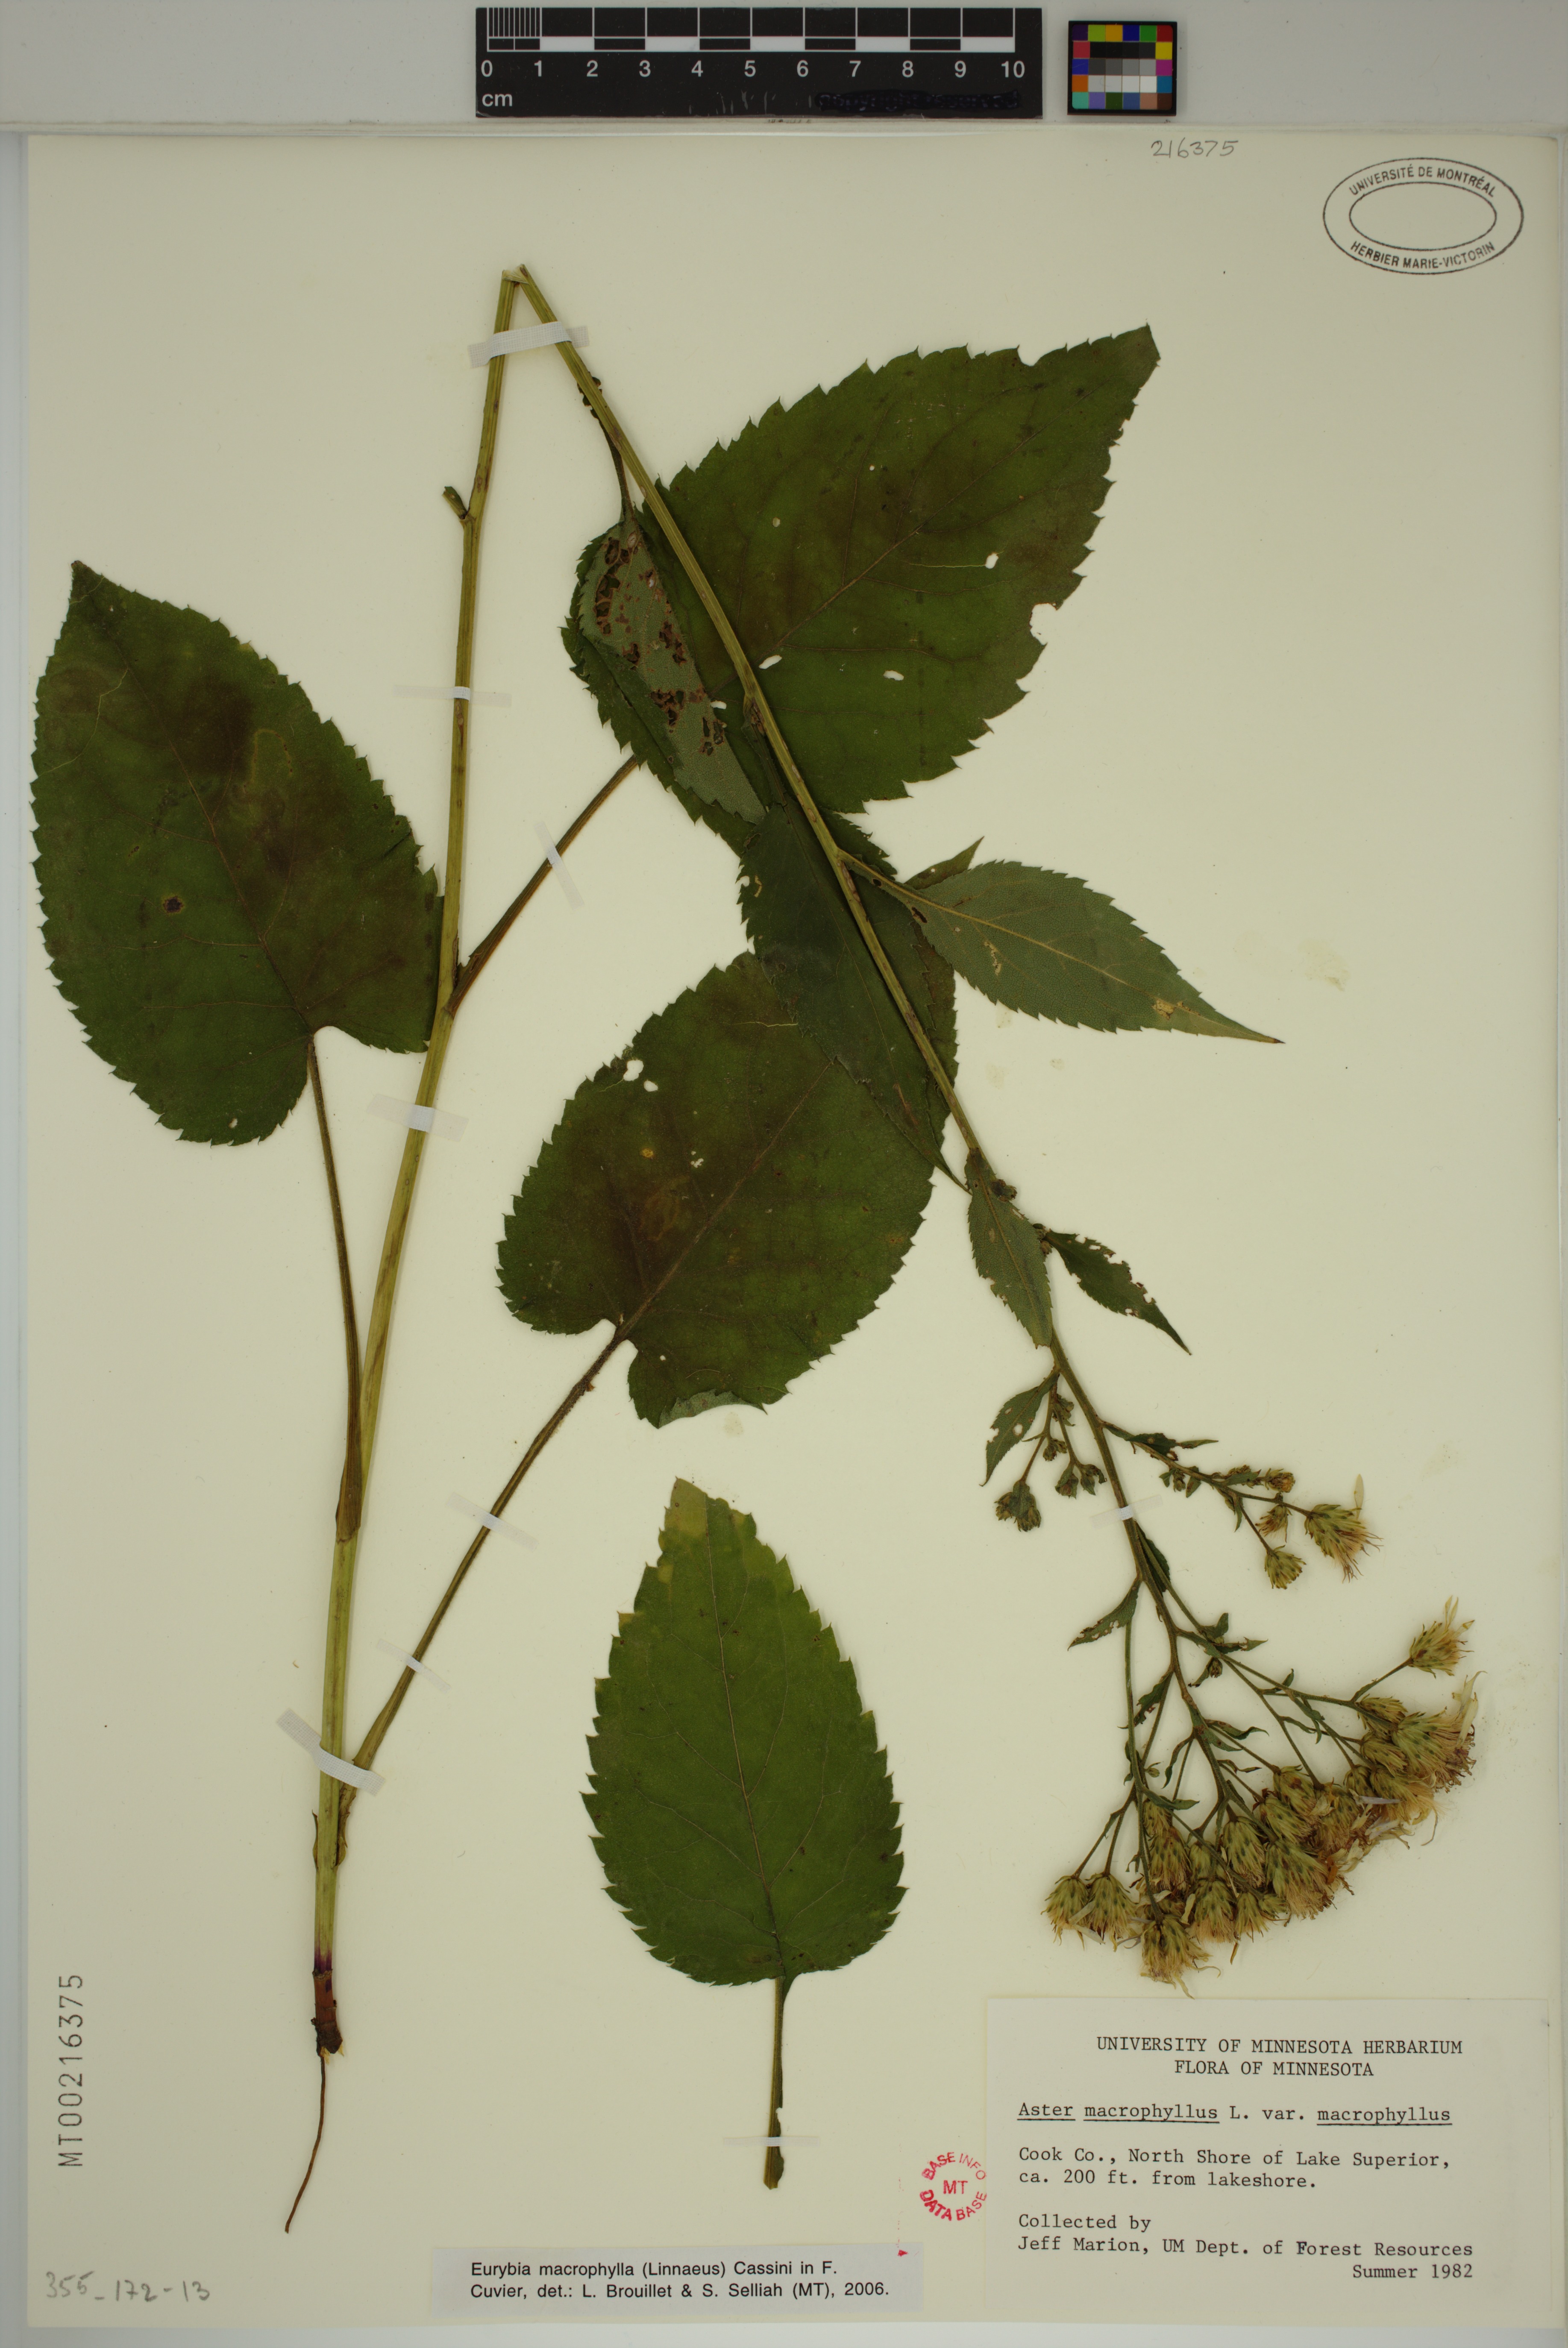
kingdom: Plantae
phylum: Tracheophyta
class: Magnoliopsida
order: Asterales
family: Asteraceae
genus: Eurybia
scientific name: Eurybia macrophylla
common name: Big-leaved aster
